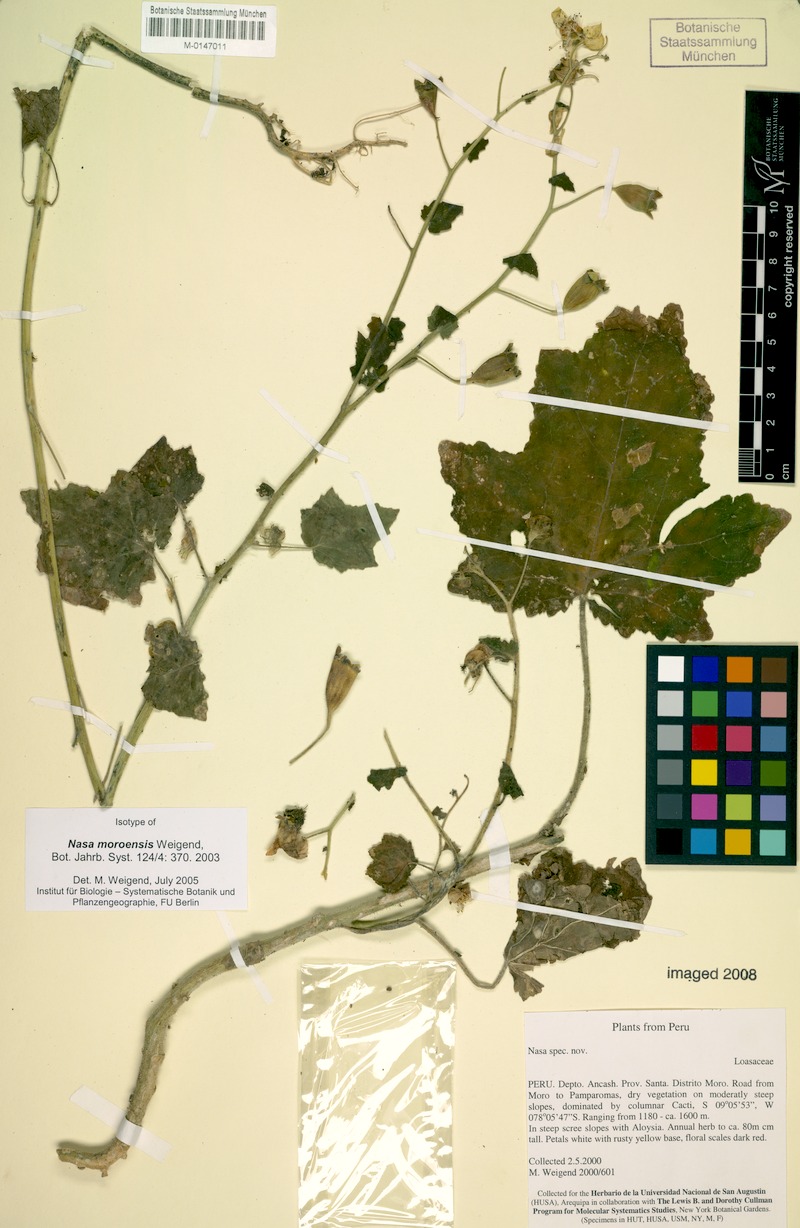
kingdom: Plantae
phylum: Tracheophyta
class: Magnoliopsida
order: Cornales
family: Loasaceae
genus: Nasa
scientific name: Nasa moroensis
